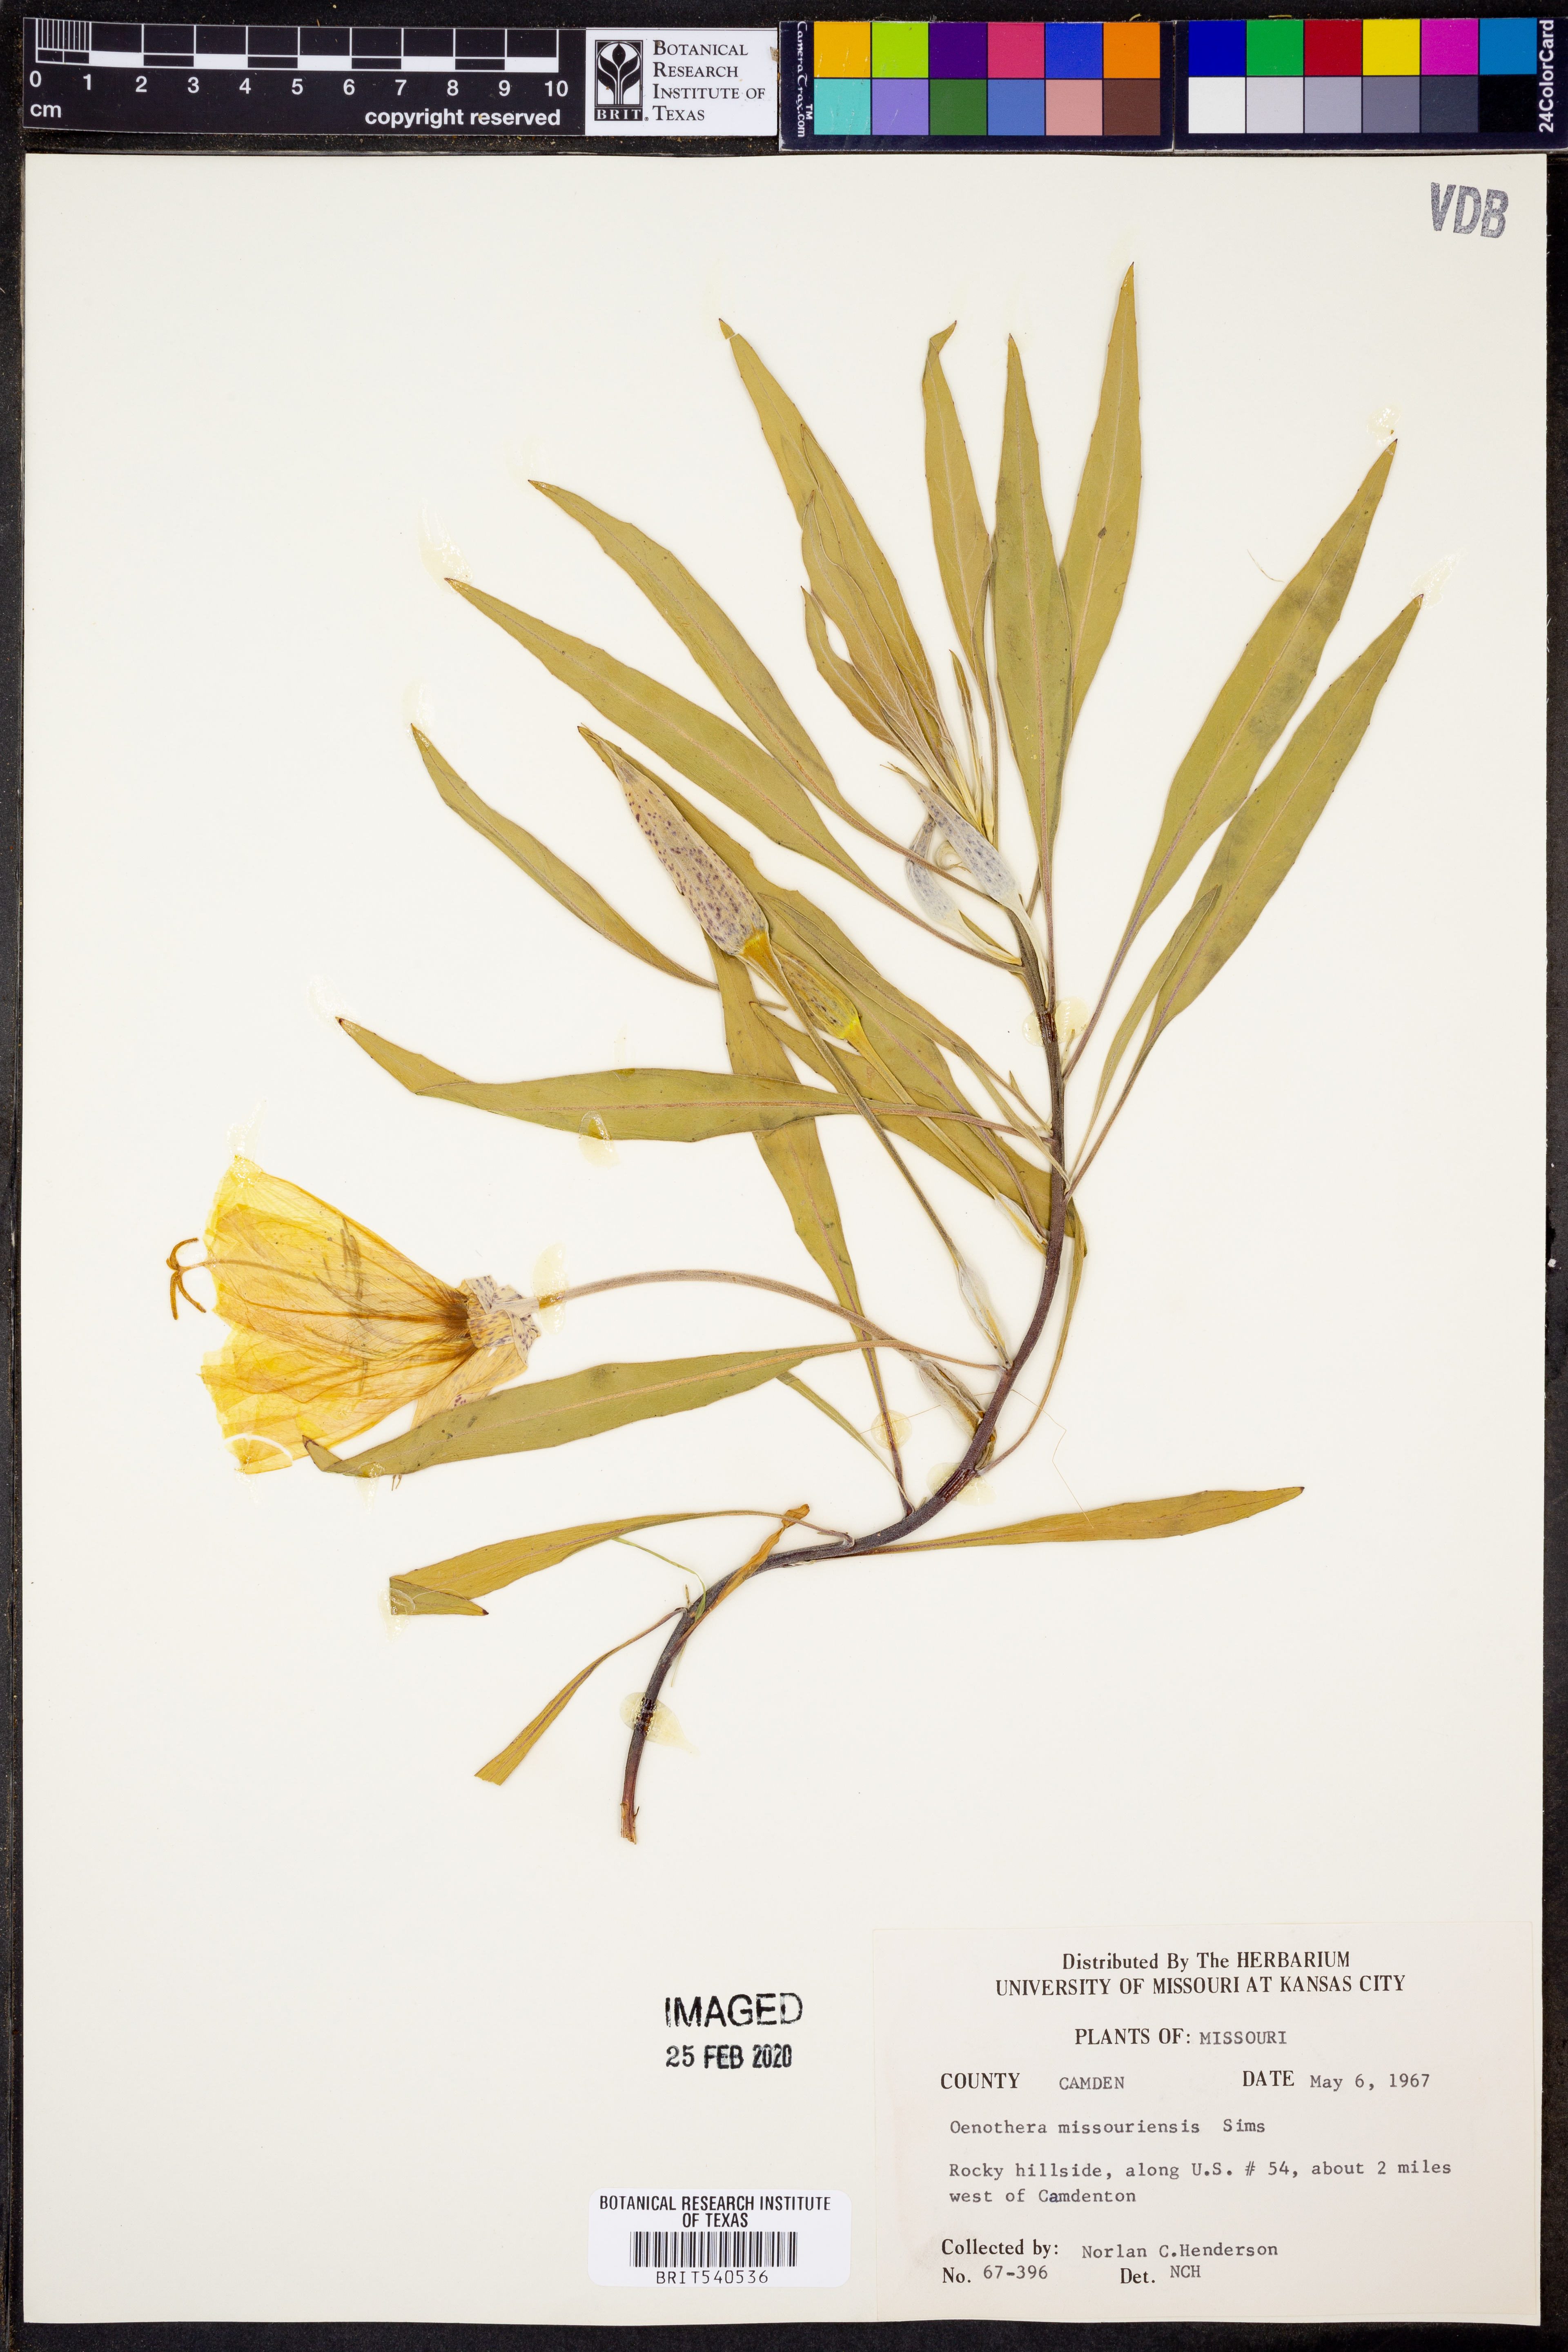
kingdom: Plantae
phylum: Tracheophyta
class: Magnoliopsida
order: Myrtales
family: Onagraceae
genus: Oenothera
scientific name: Oenothera macrocarpa
